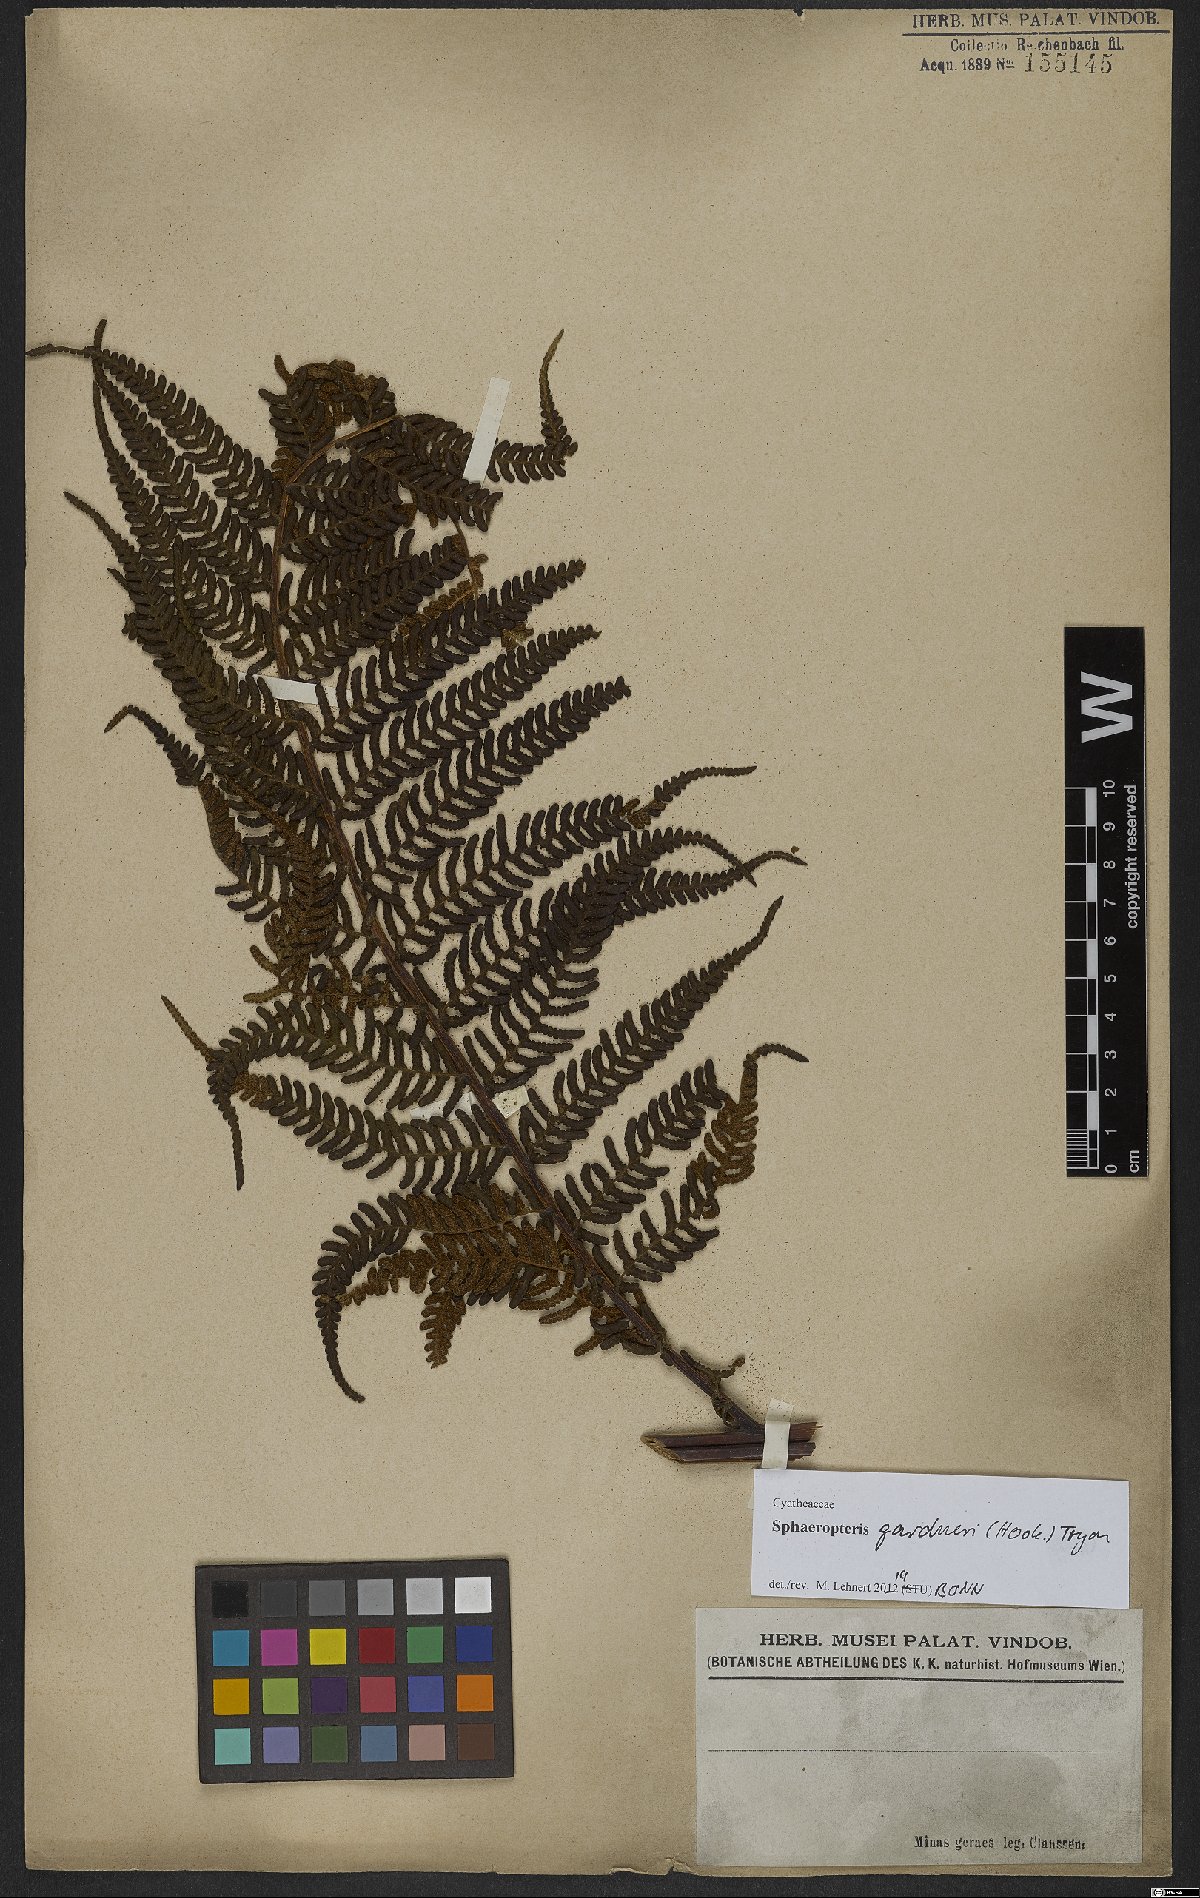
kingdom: Plantae
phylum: Tracheophyta
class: Polypodiopsida
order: Cyatheales
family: Cyatheaceae
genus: Sphaeropteris
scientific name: Sphaeropteris gardneri
